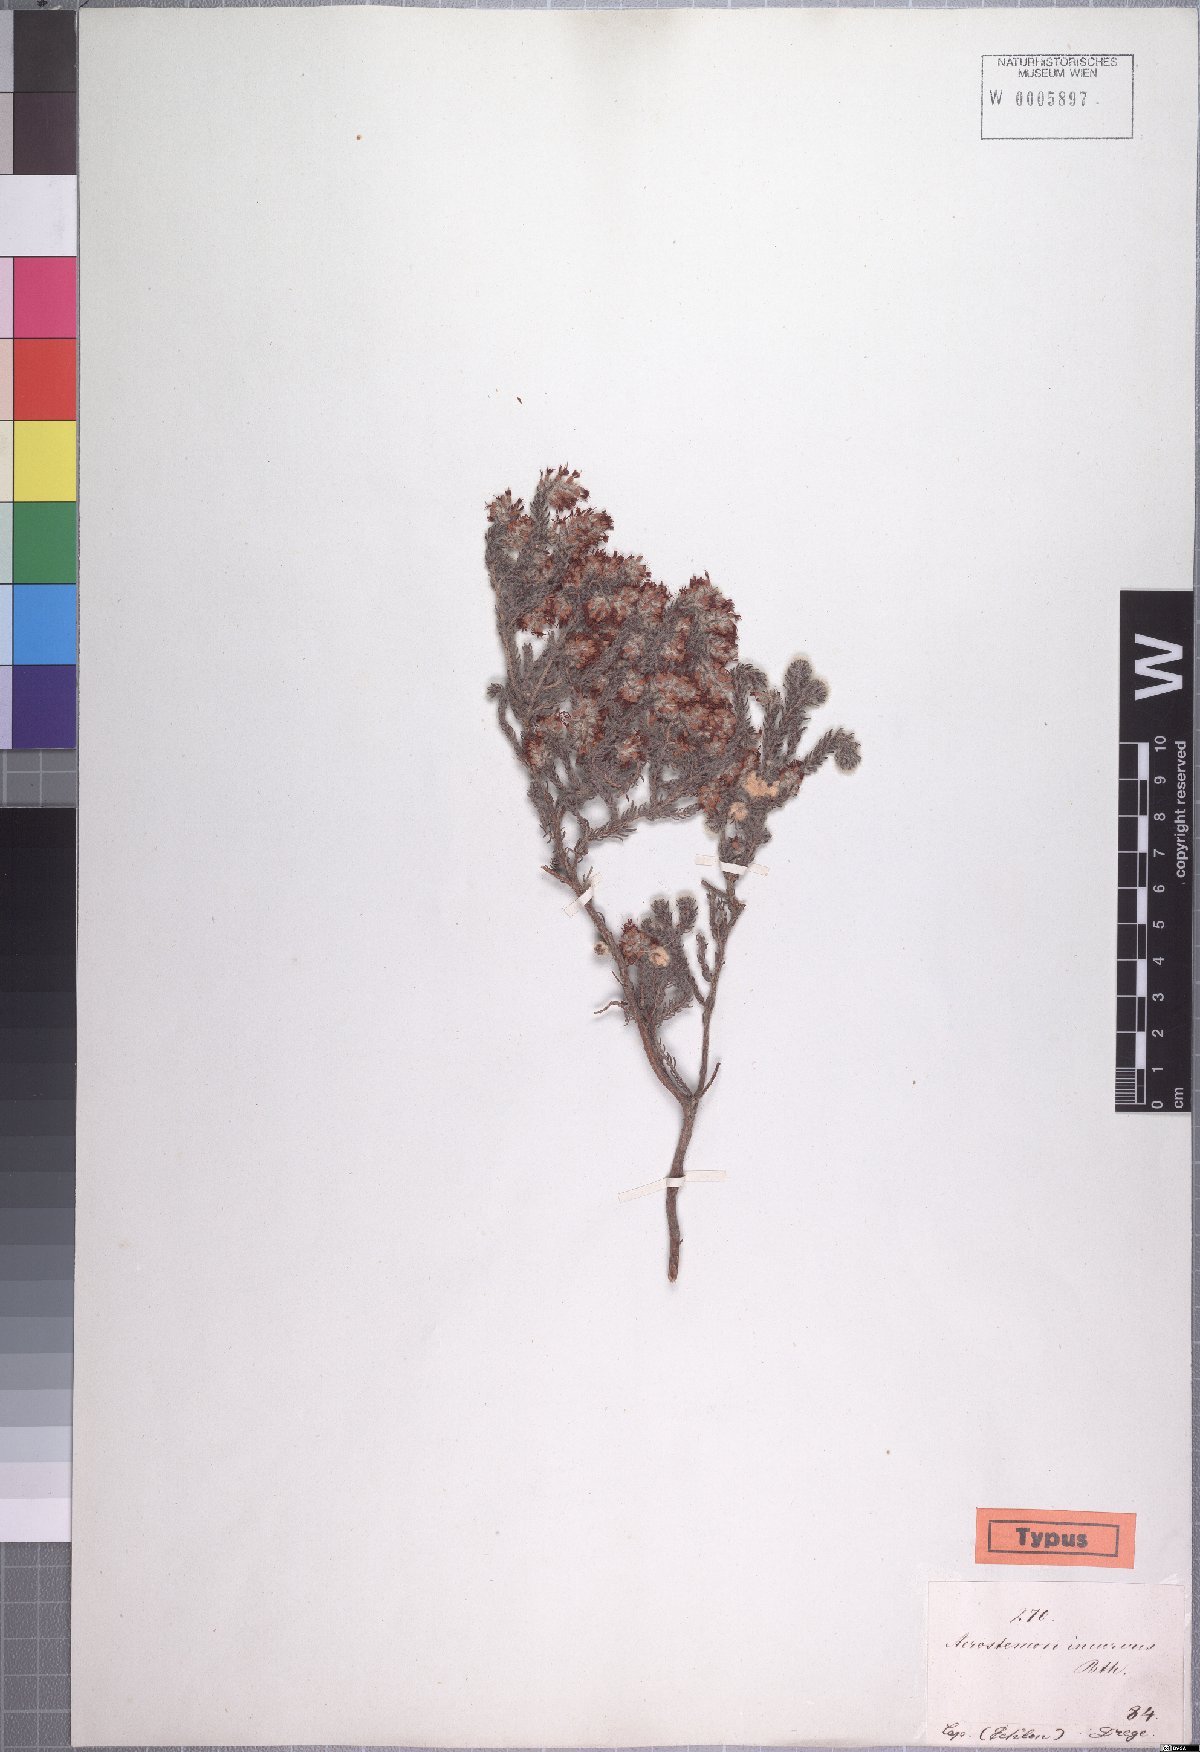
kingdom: Plantae
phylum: Tracheophyta
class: Magnoliopsida
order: Ericales
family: Ericaceae
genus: Erica
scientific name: Erica eriocephala
